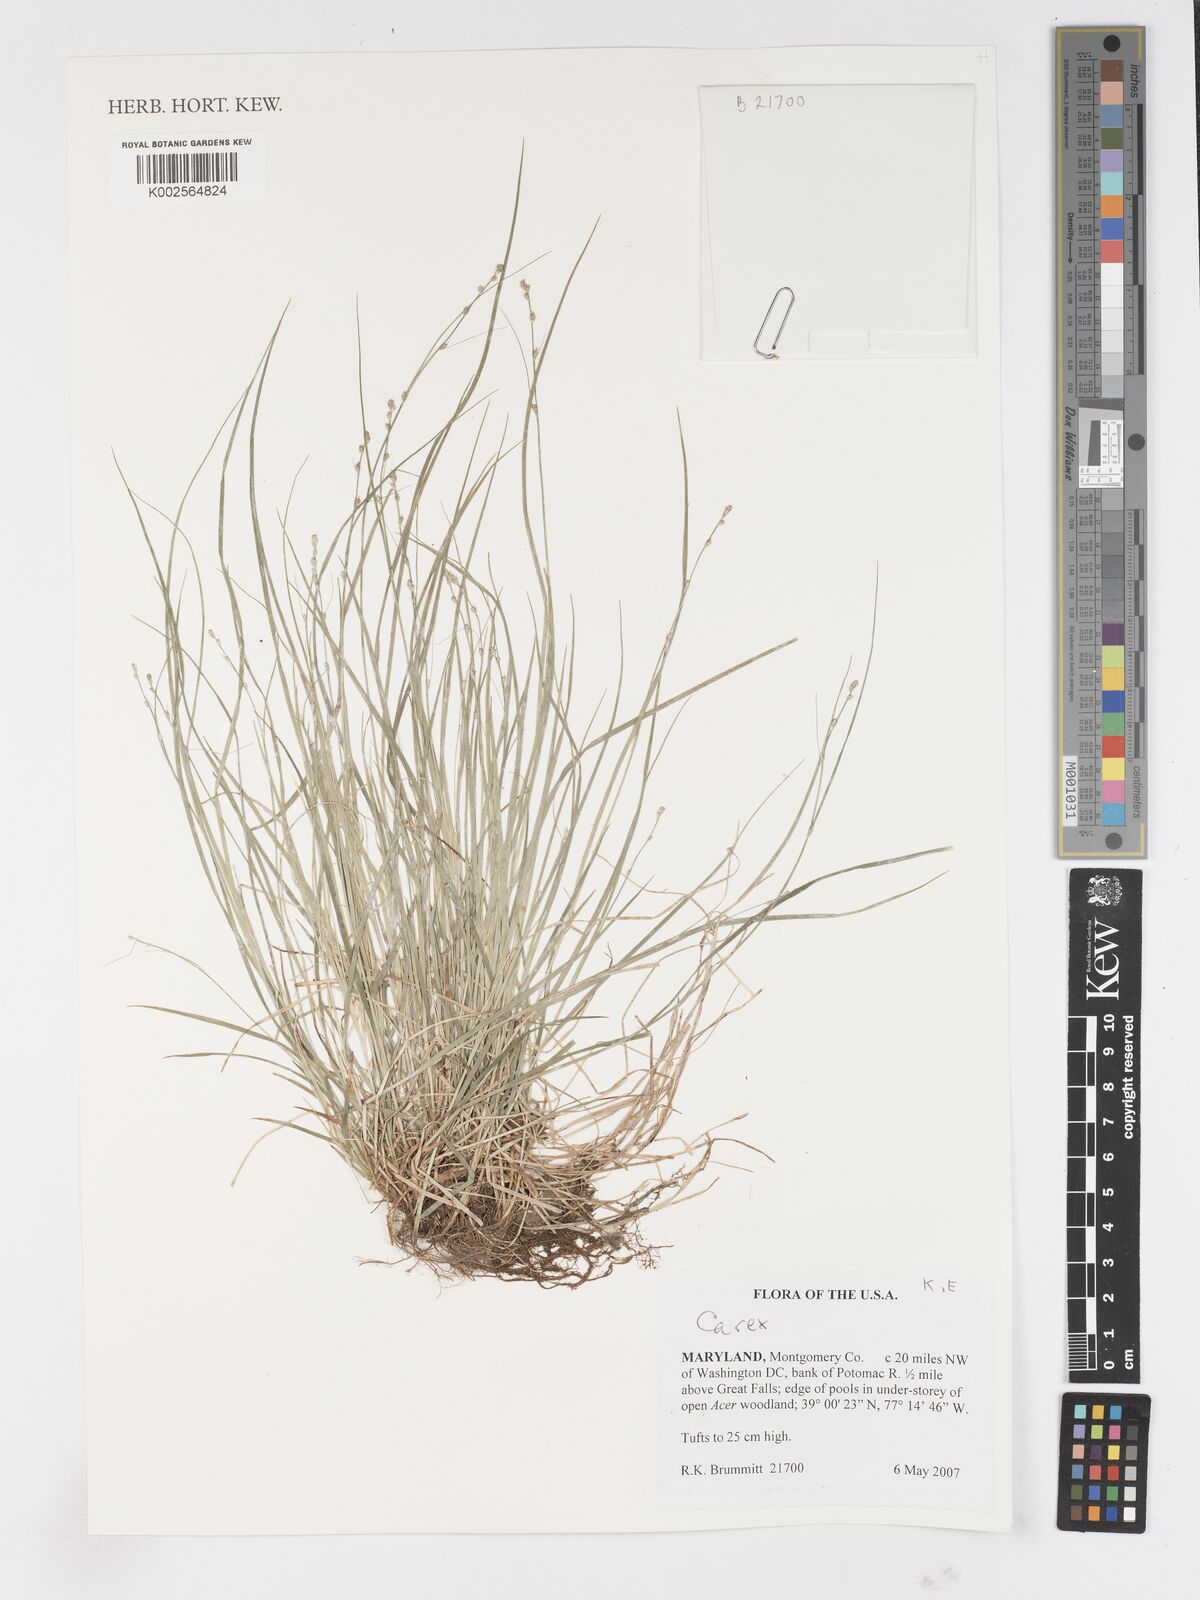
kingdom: Plantae
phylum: Tracheophyta
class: Liliopsida
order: Poales
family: Cyperaceae
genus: Carex
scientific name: Carex
